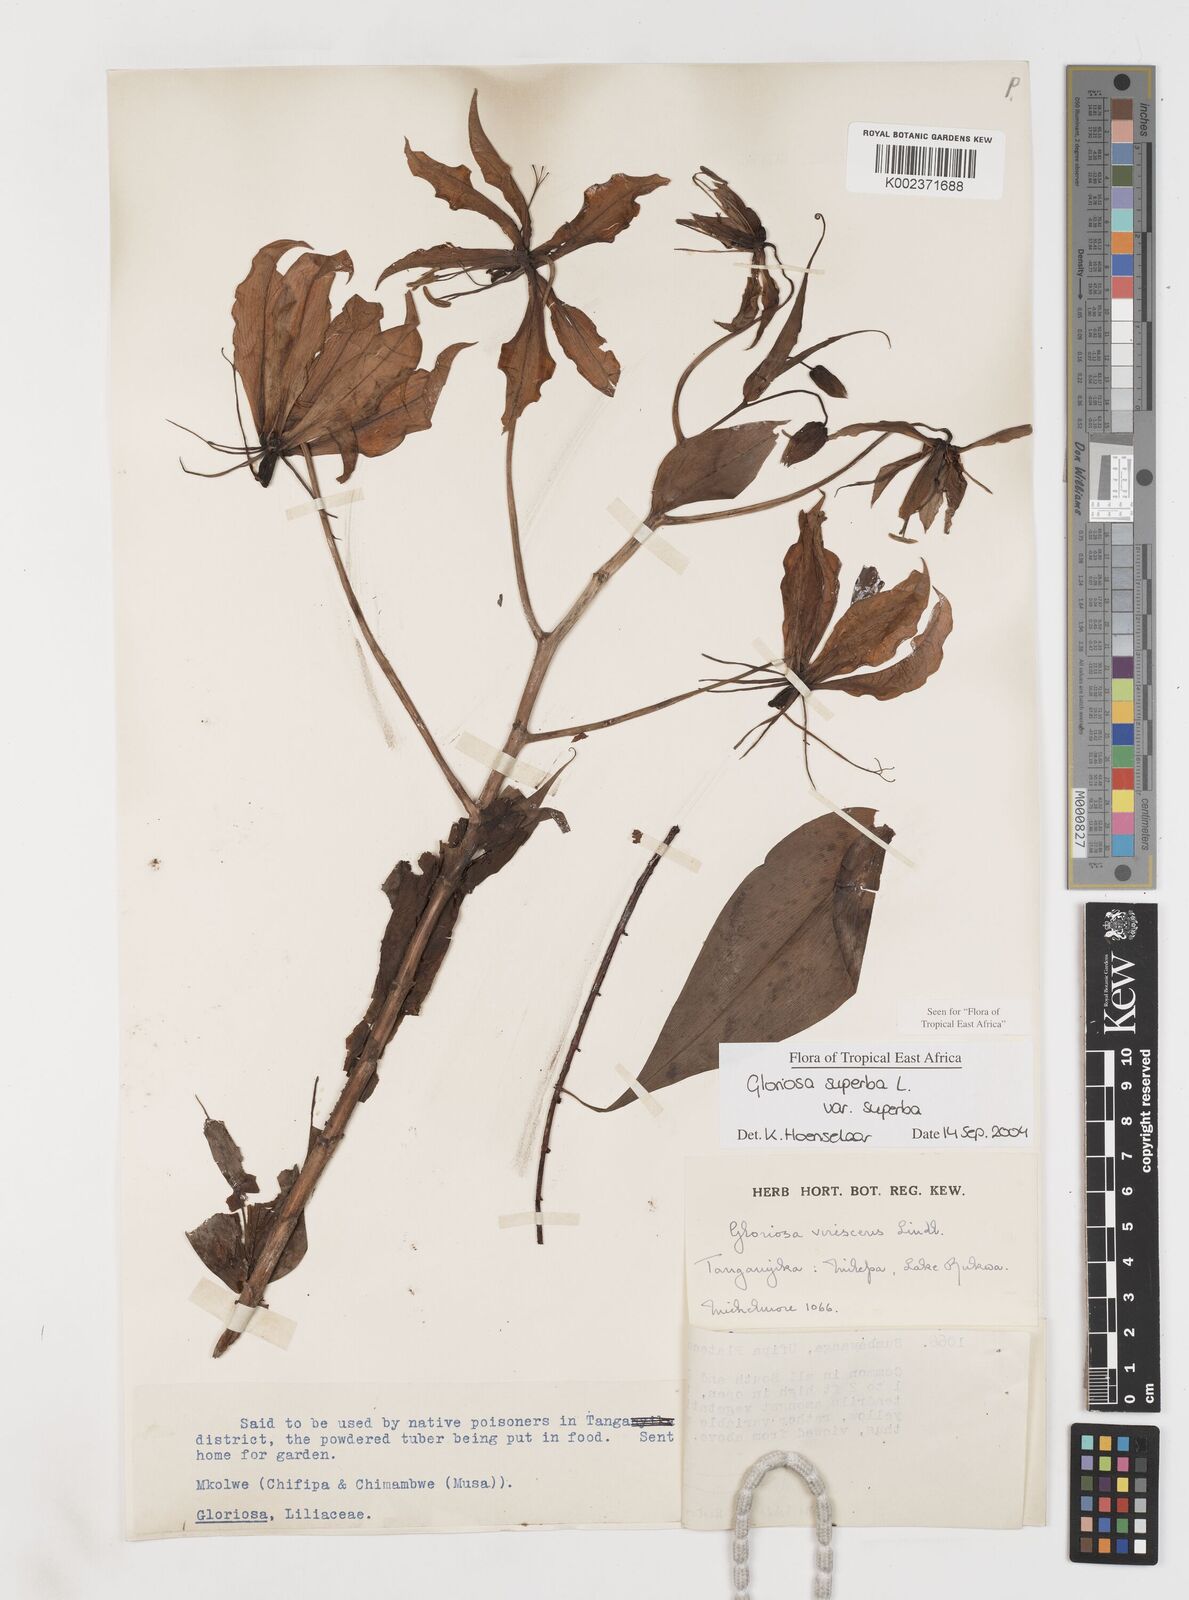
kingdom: Plantae
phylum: Tracheophyta
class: Liliopsida
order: Liliales
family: Colchicaceae
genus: Gloriosa
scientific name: Gloriosa simplex
